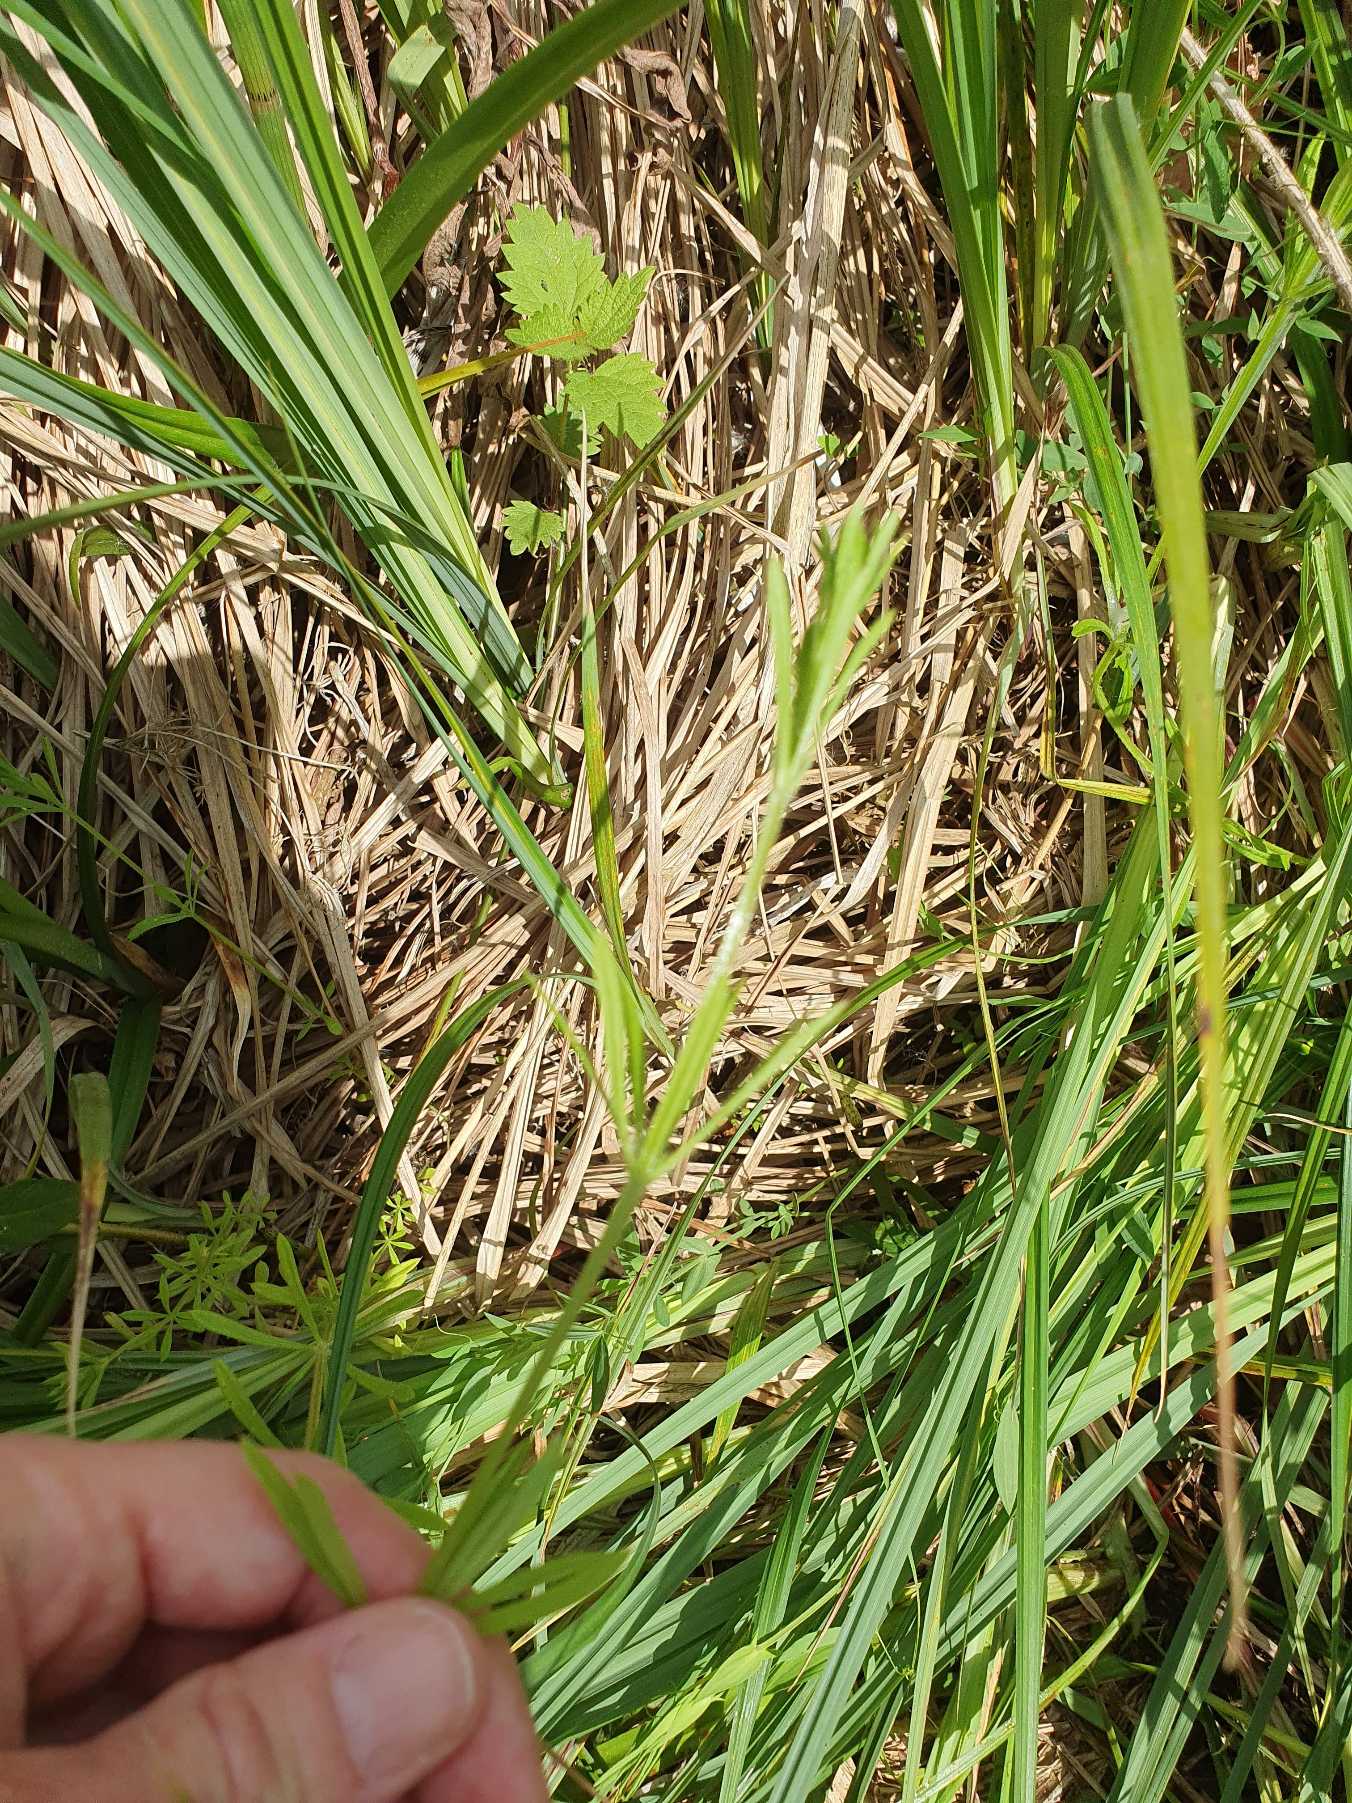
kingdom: Plantae
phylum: Tracheophyta
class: Magnoliopsida
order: Gentianales
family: Rubiaceae
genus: Galium
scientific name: Galium aparine
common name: Burre-snerre
